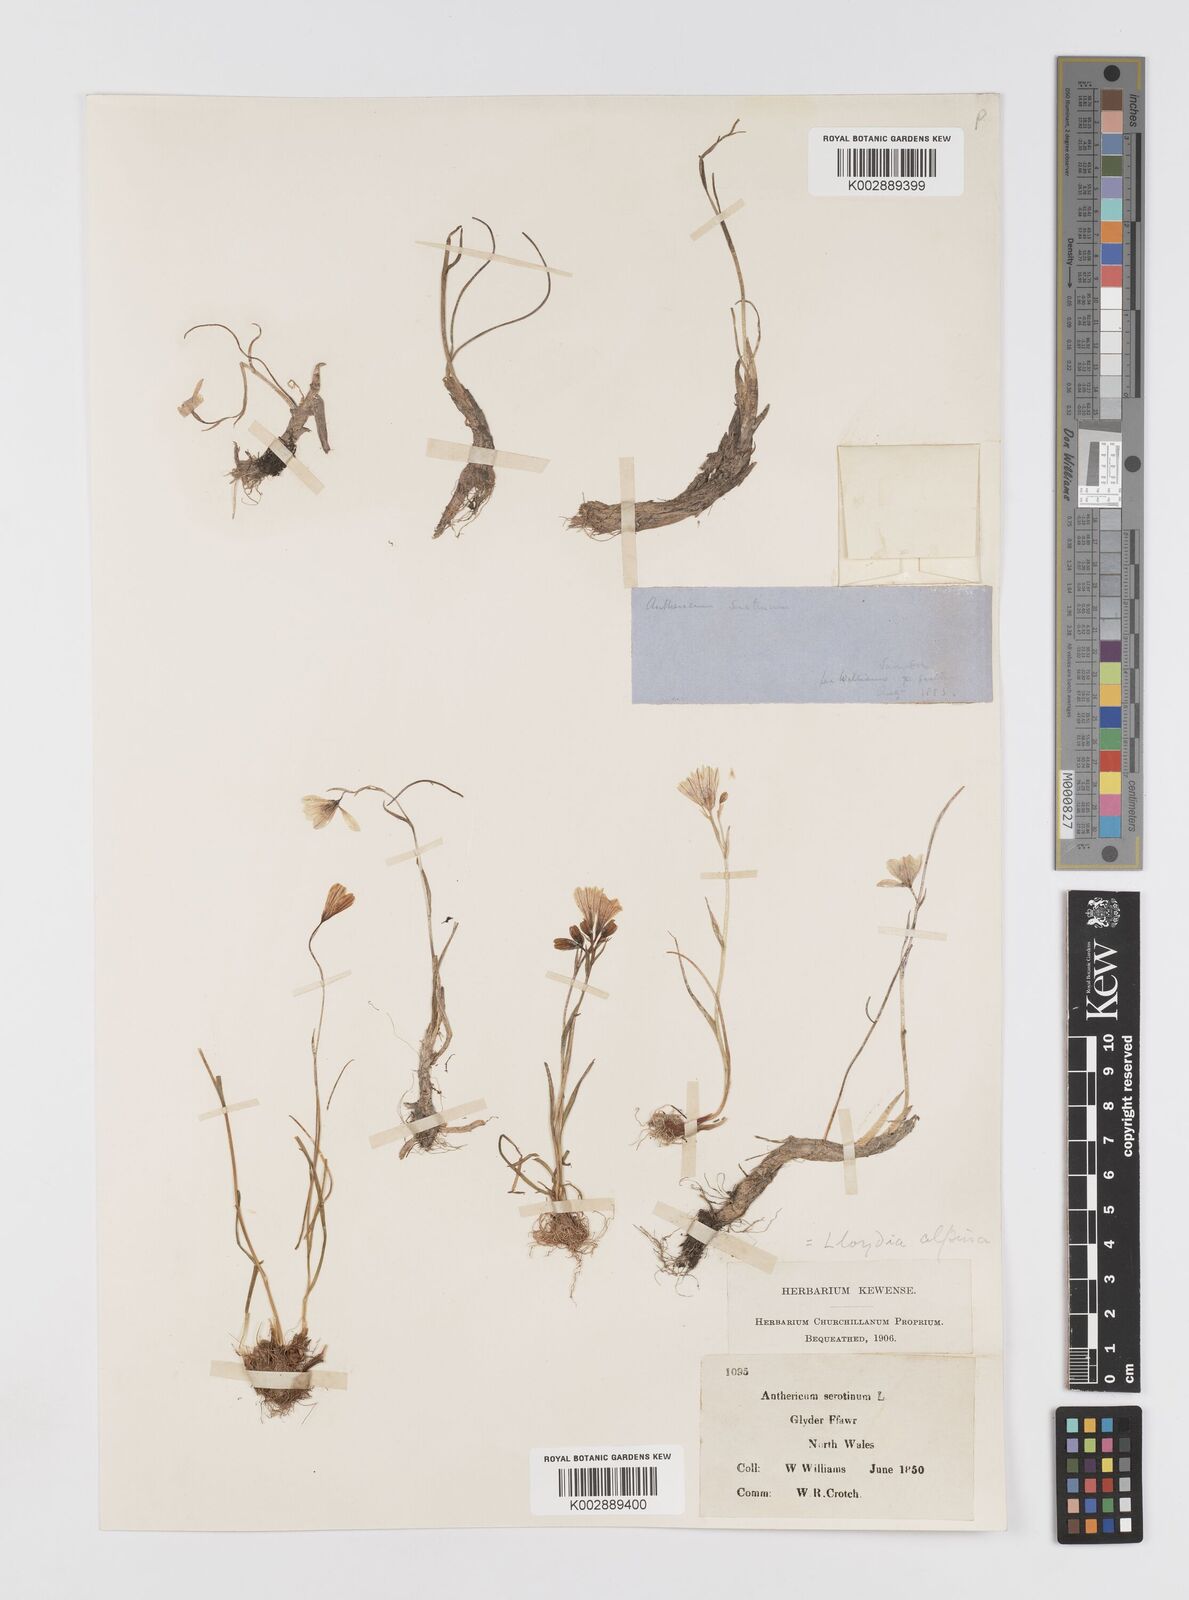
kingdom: Plantae
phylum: Tracheophyta
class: Liliopsida
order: Liliales
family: Liliaceae
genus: Gagea
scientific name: Gagea
